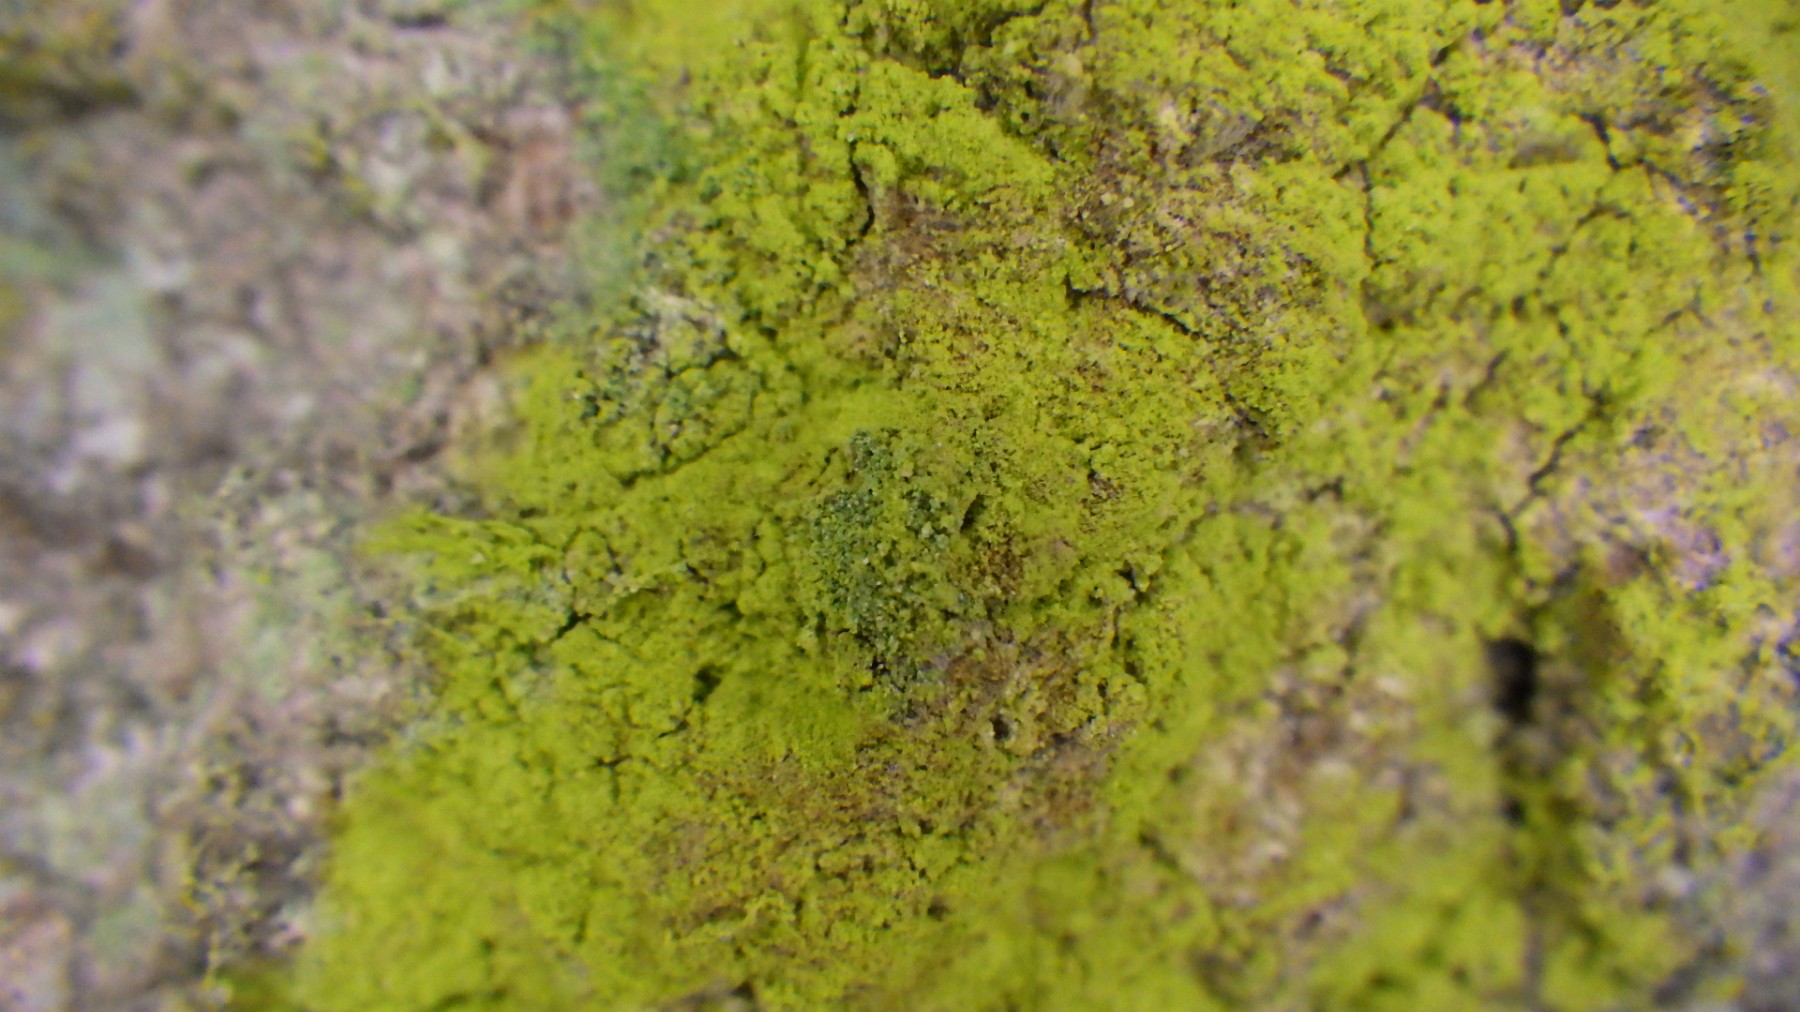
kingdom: Fungi
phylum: Ascomycota
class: Arthoniomycetes
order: Arthoniales
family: Chrysotrichaceae
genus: Chrysothrix
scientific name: Chrysothrix candelaris
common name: gul støvlav
